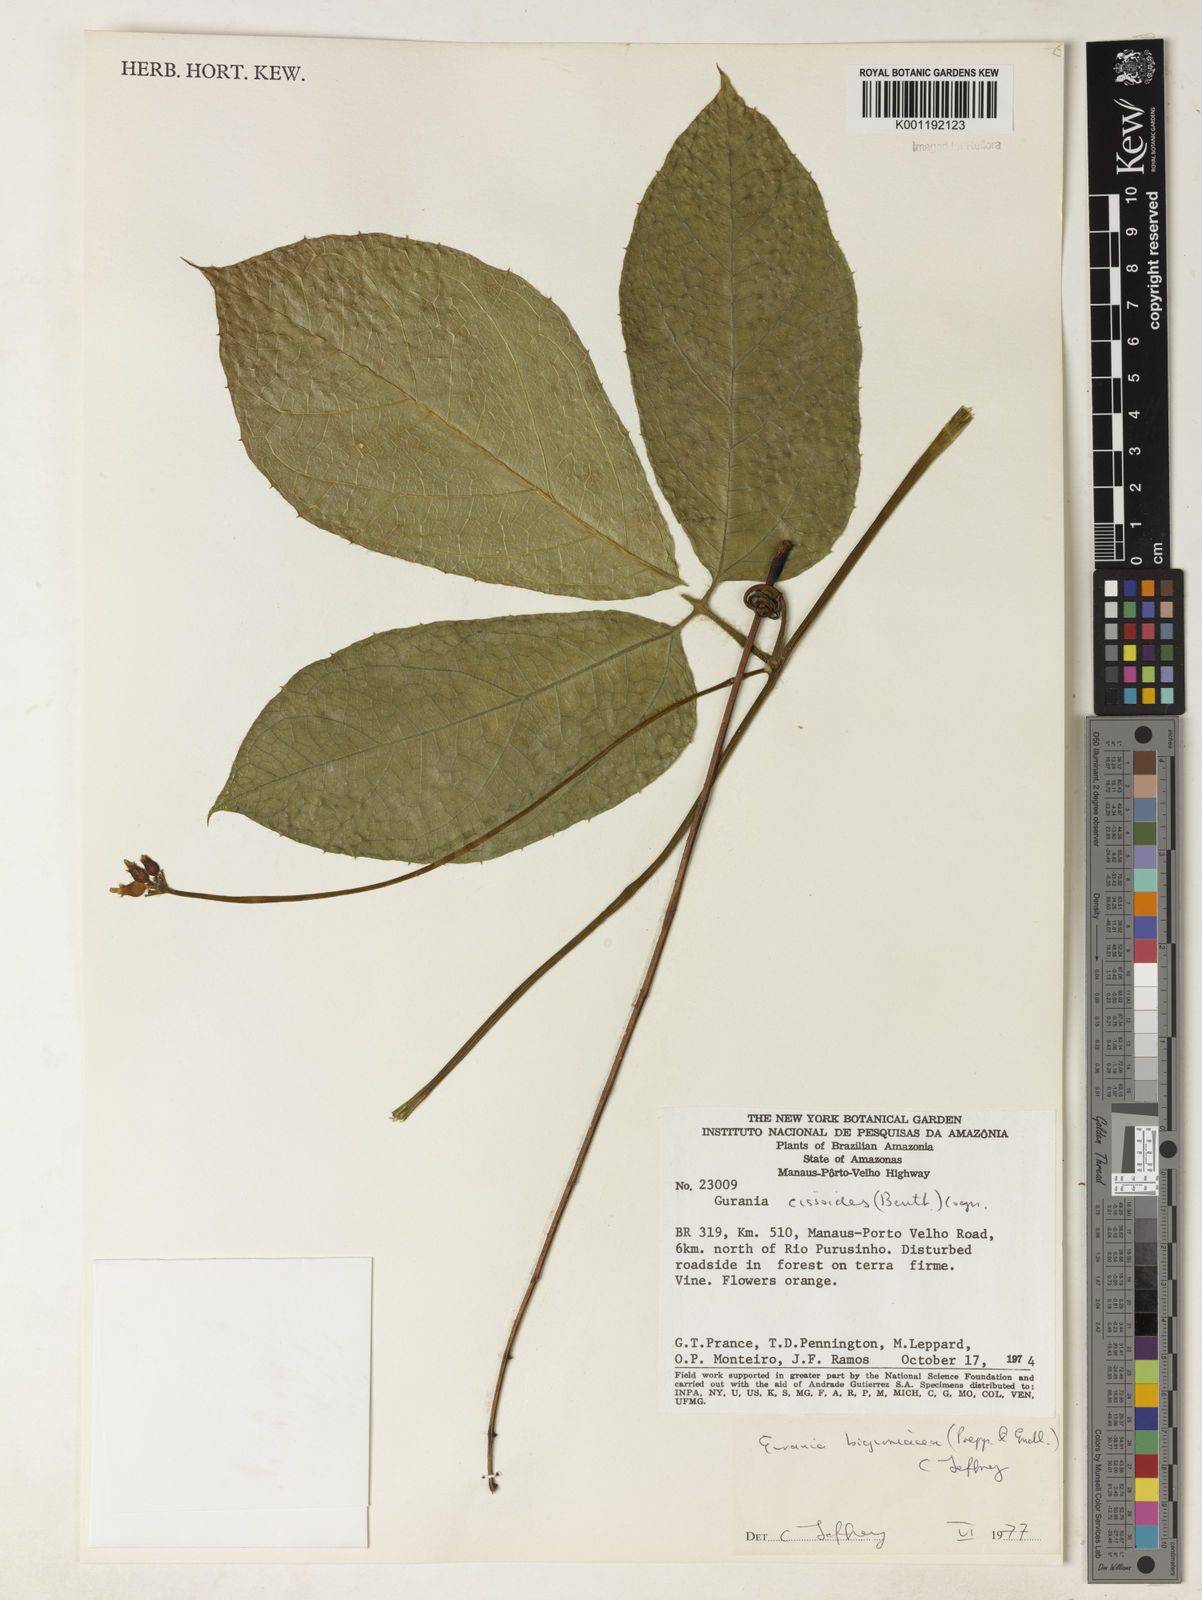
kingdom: Plantae
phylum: Tracheophyta
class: Magnoliopsida
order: Cucurbitales
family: Cucurbitaceae
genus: Gurania
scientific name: Gurania bignoniacea
